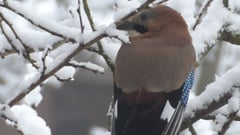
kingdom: Animalia
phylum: Chordata
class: Aves
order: Passeriformes
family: Corvidae
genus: Garrulus
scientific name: Garrulus glandarius
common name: Eurasian jay
